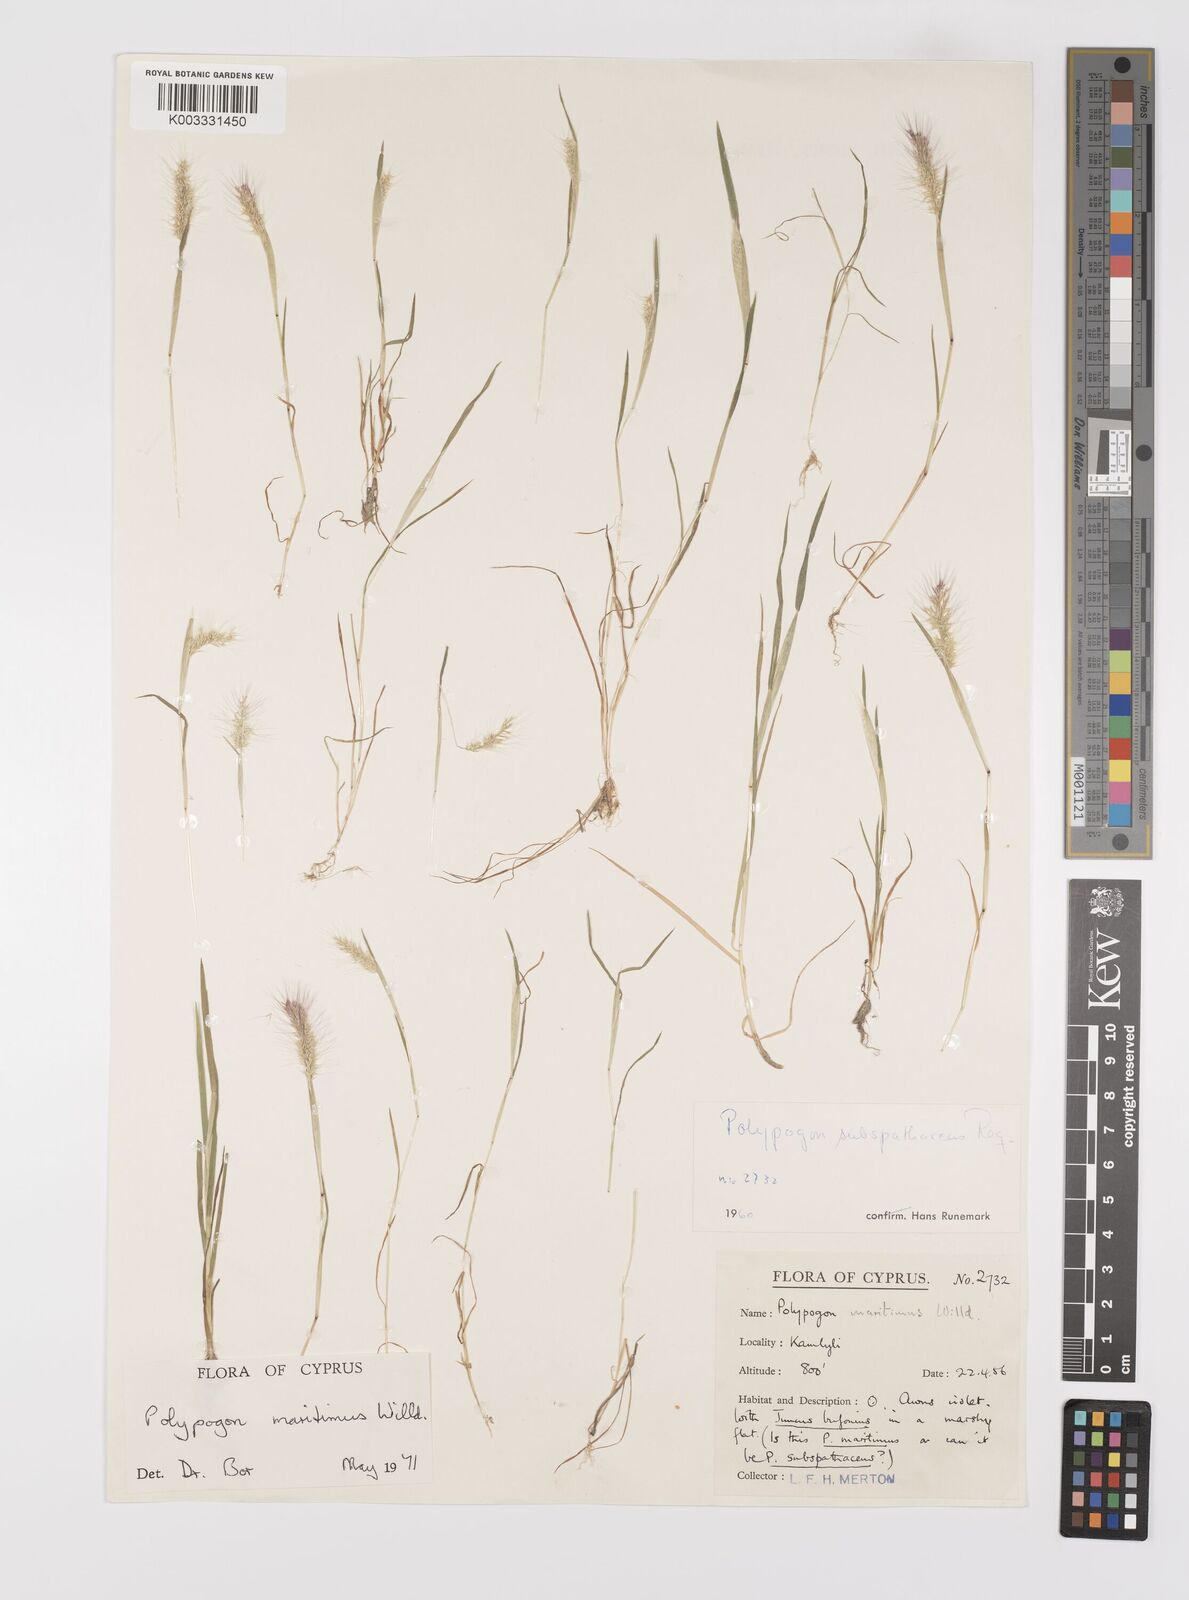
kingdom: Plantae
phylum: Tracheophyta
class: Liliopsida
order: Poales
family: Poaceae
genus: Polypogon
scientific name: Polypogon maritimus
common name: Mediterranean rabbitsfoot grass
